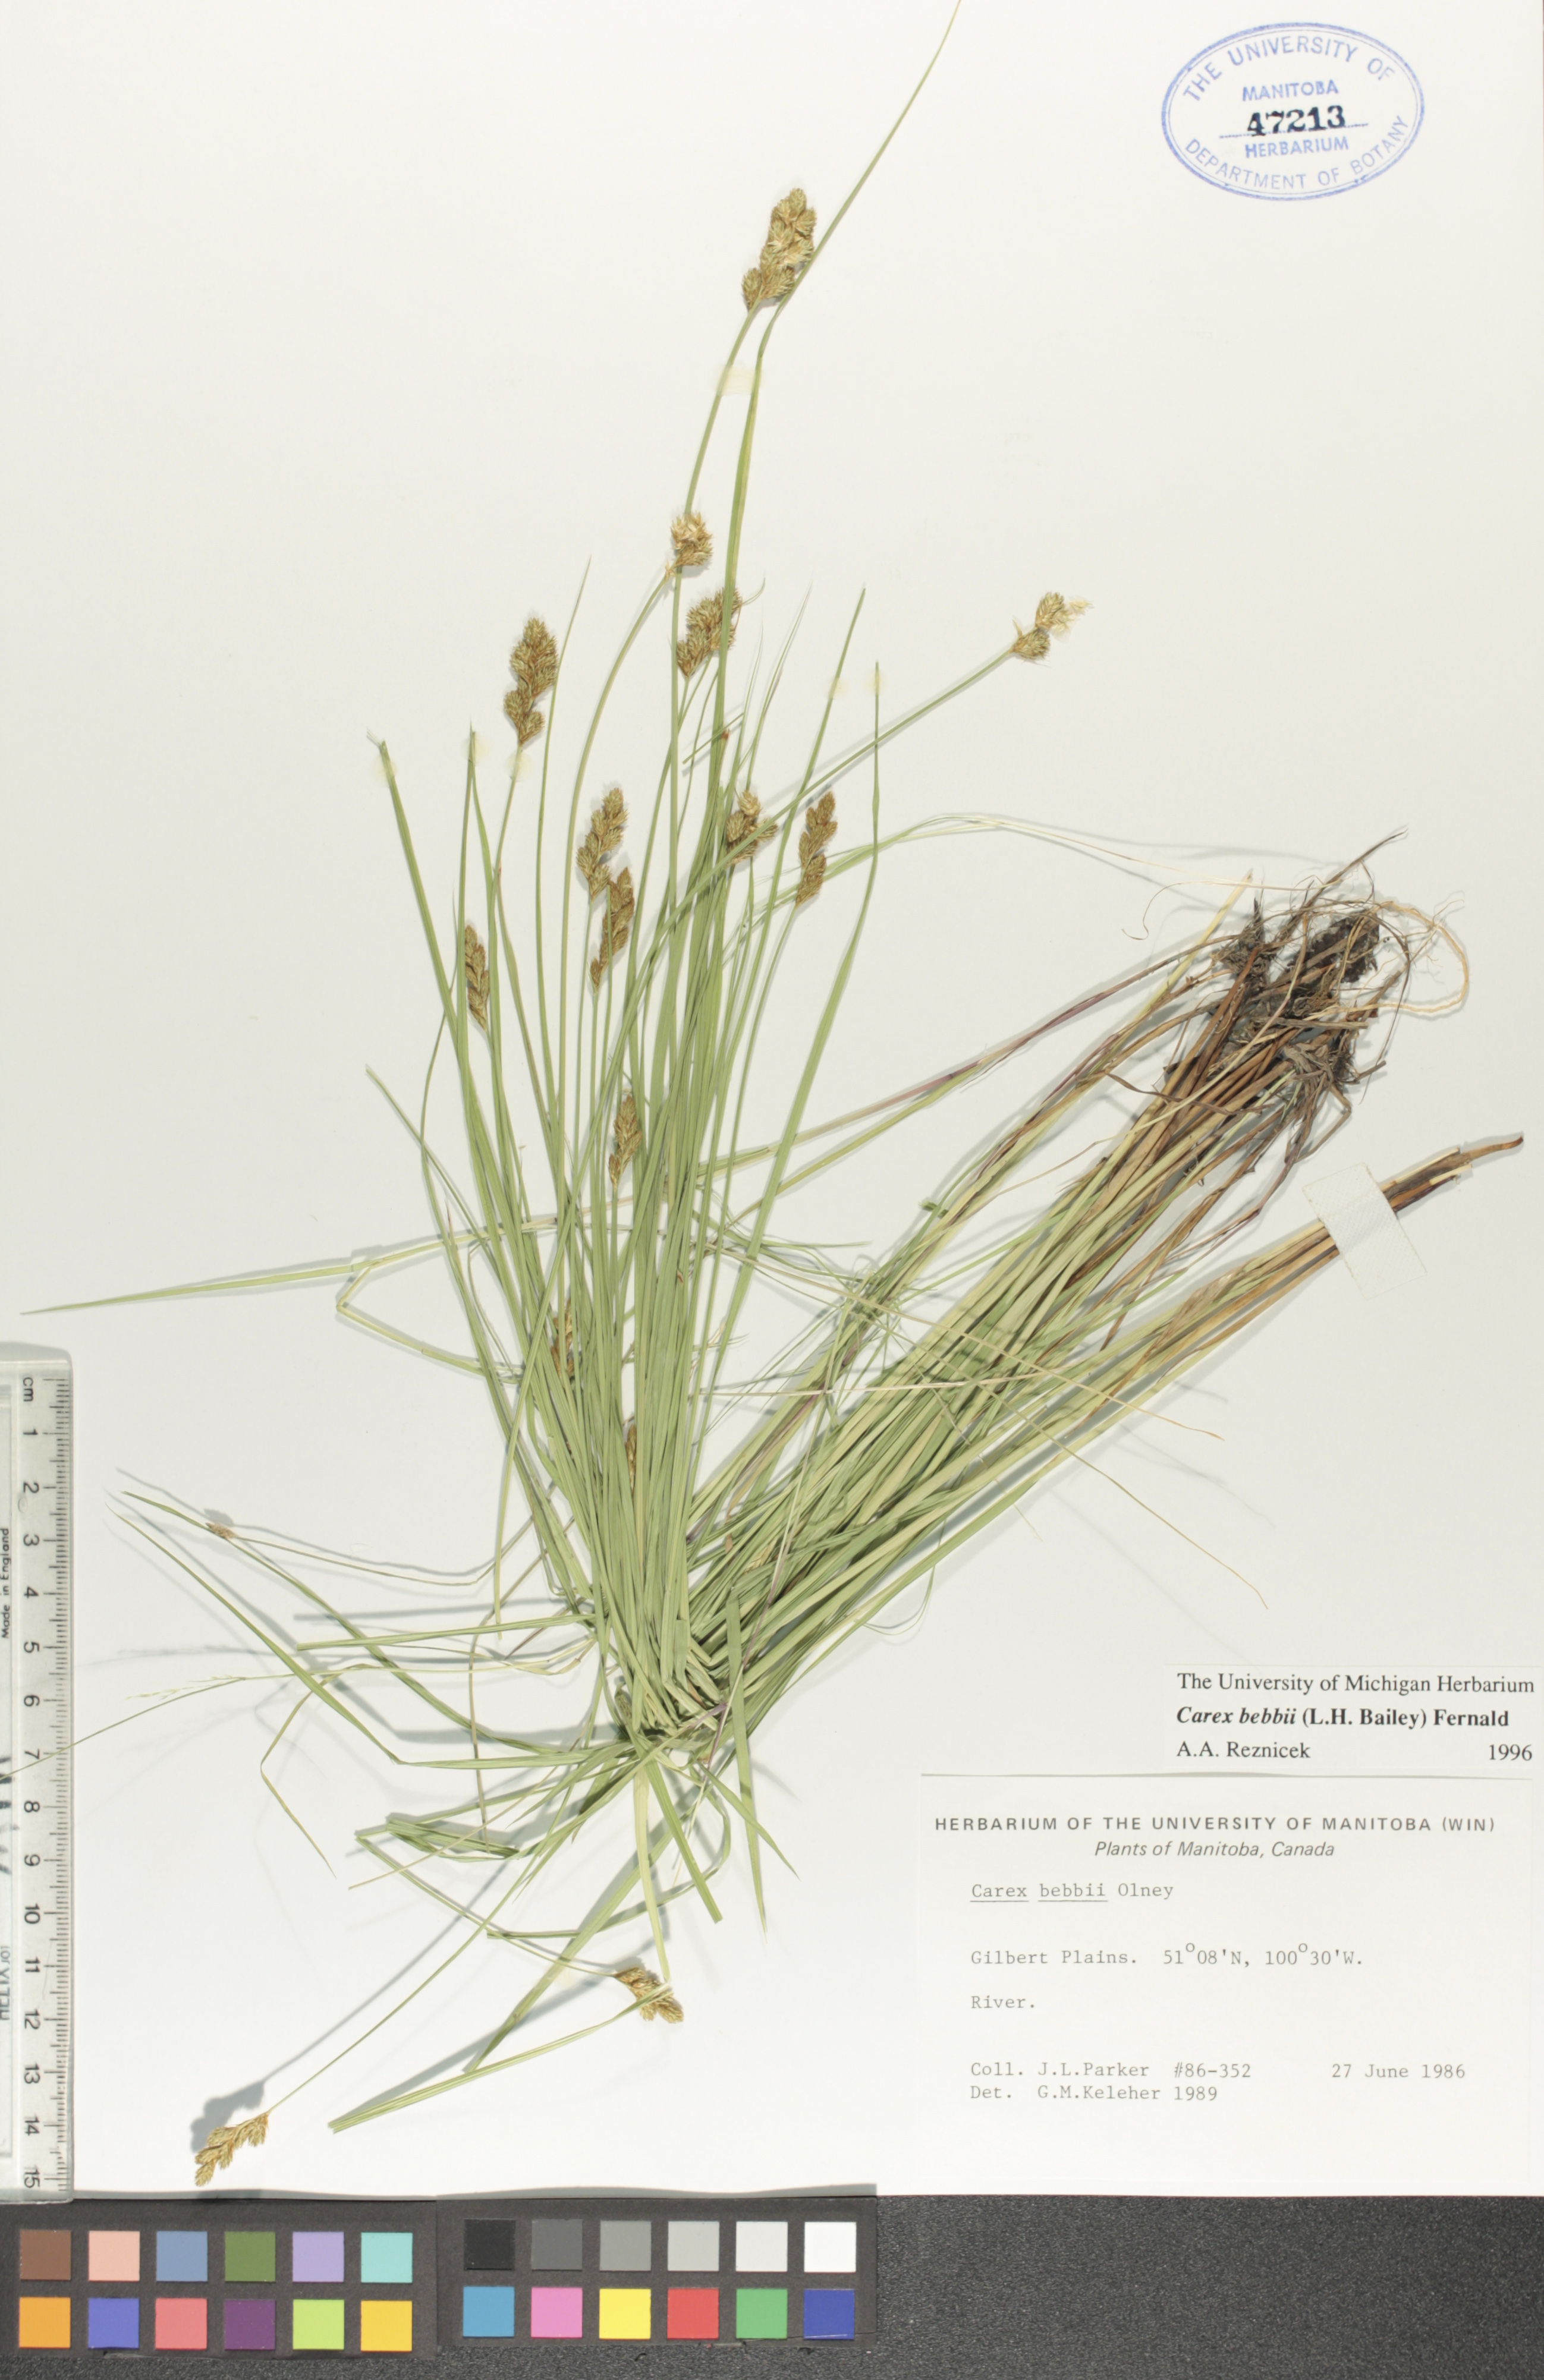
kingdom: Plantae
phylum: Tracheophyta
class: Liliopsida
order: Poales
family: Cyperaceae
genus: Carex
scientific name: Carex bebbii
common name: Bebb's sedge
